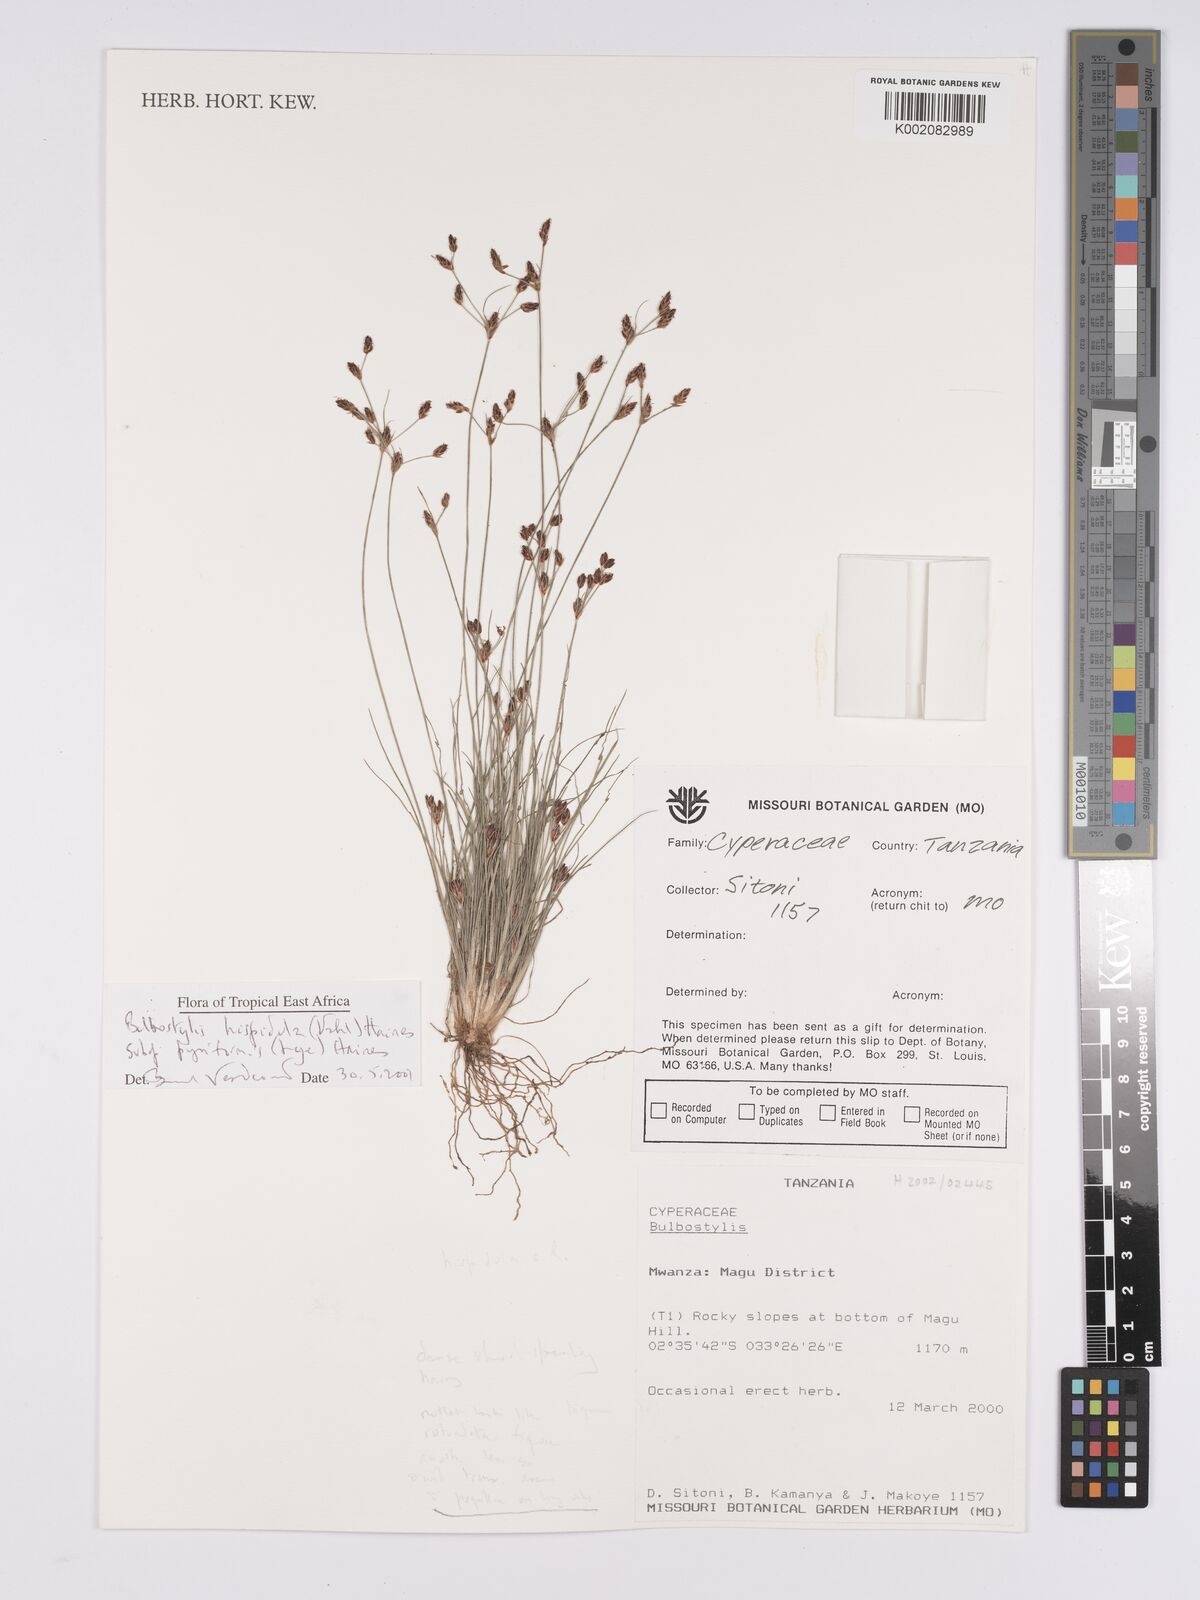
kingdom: Plantae
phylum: Tracheophyta
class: Liliopsida
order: Poales
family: Cyperaceae
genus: Bulbostylis
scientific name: Bulbostylis hispidula
